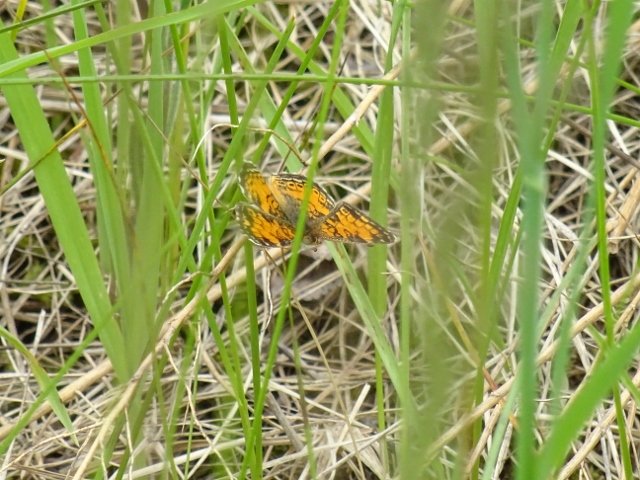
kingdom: Animalia
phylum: Arthropoda
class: Insecta
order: Lepidoptera
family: Nymphalidae
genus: Phyciodes
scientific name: Phyciodes tharos
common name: Pearl Crescent
